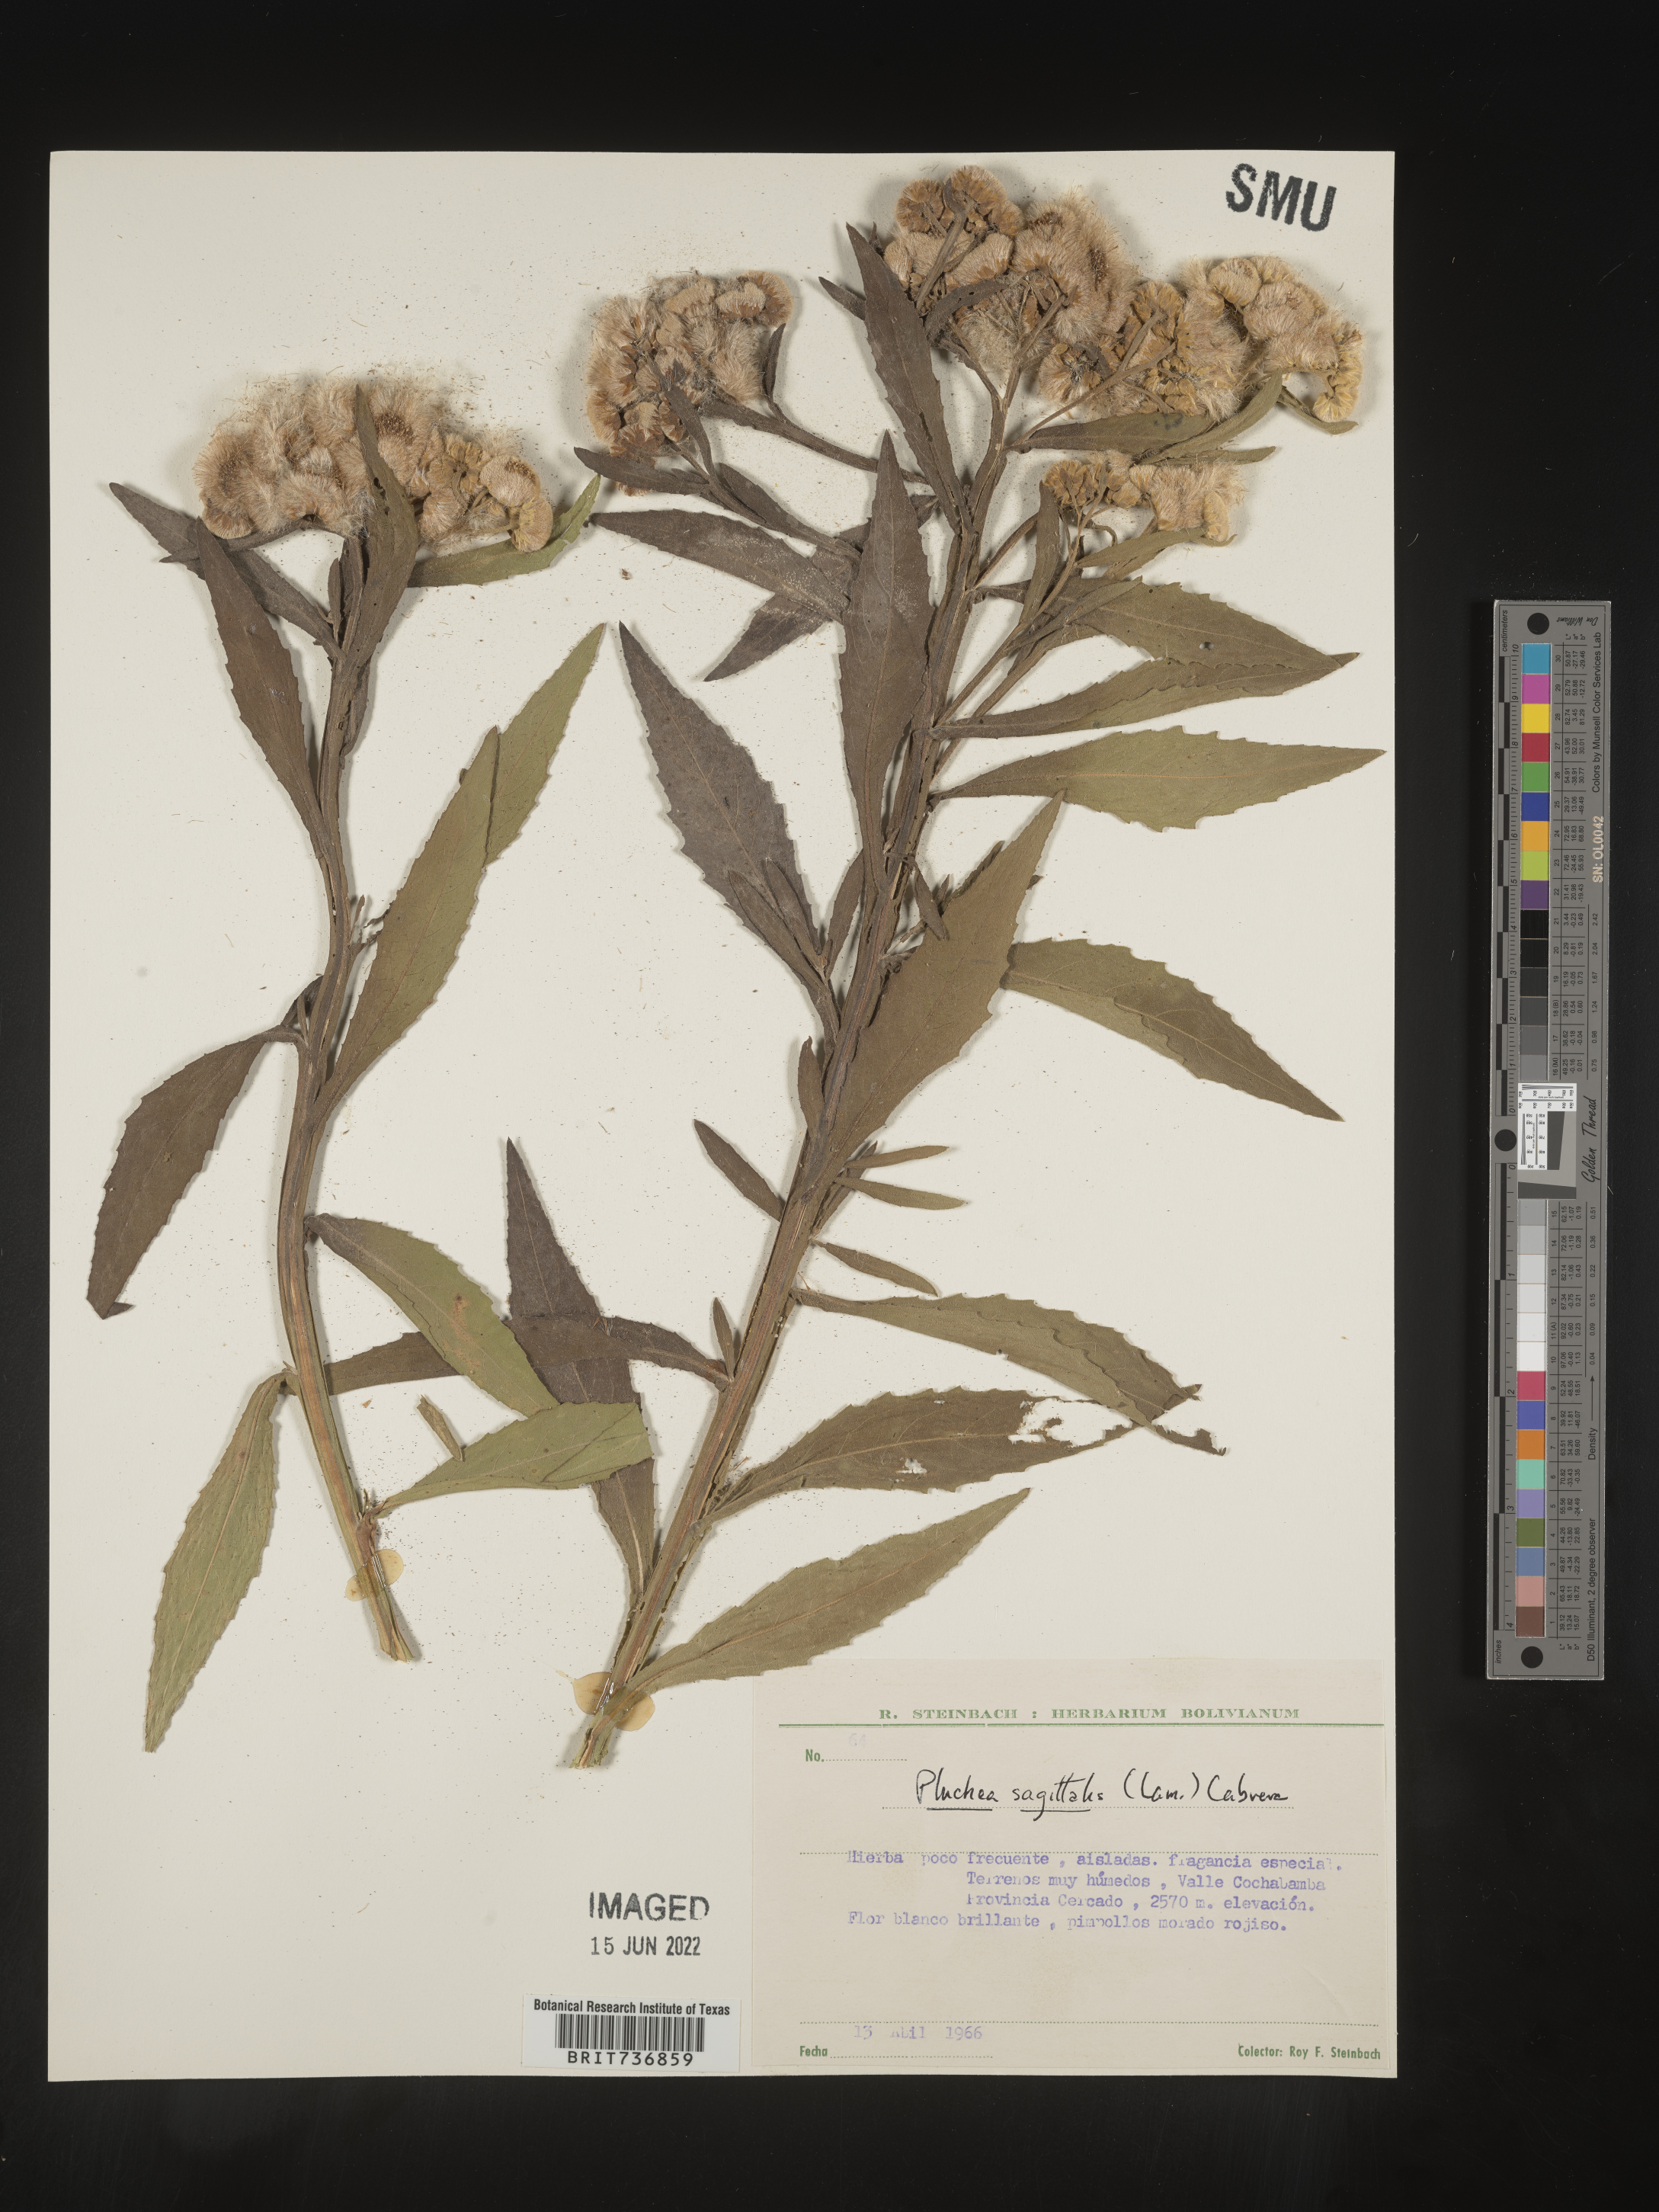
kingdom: Plantae
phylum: Tracheophyta
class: Magnoliopsida
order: Asterales
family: Asteraceae
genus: Pluchea
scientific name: Pluchea
